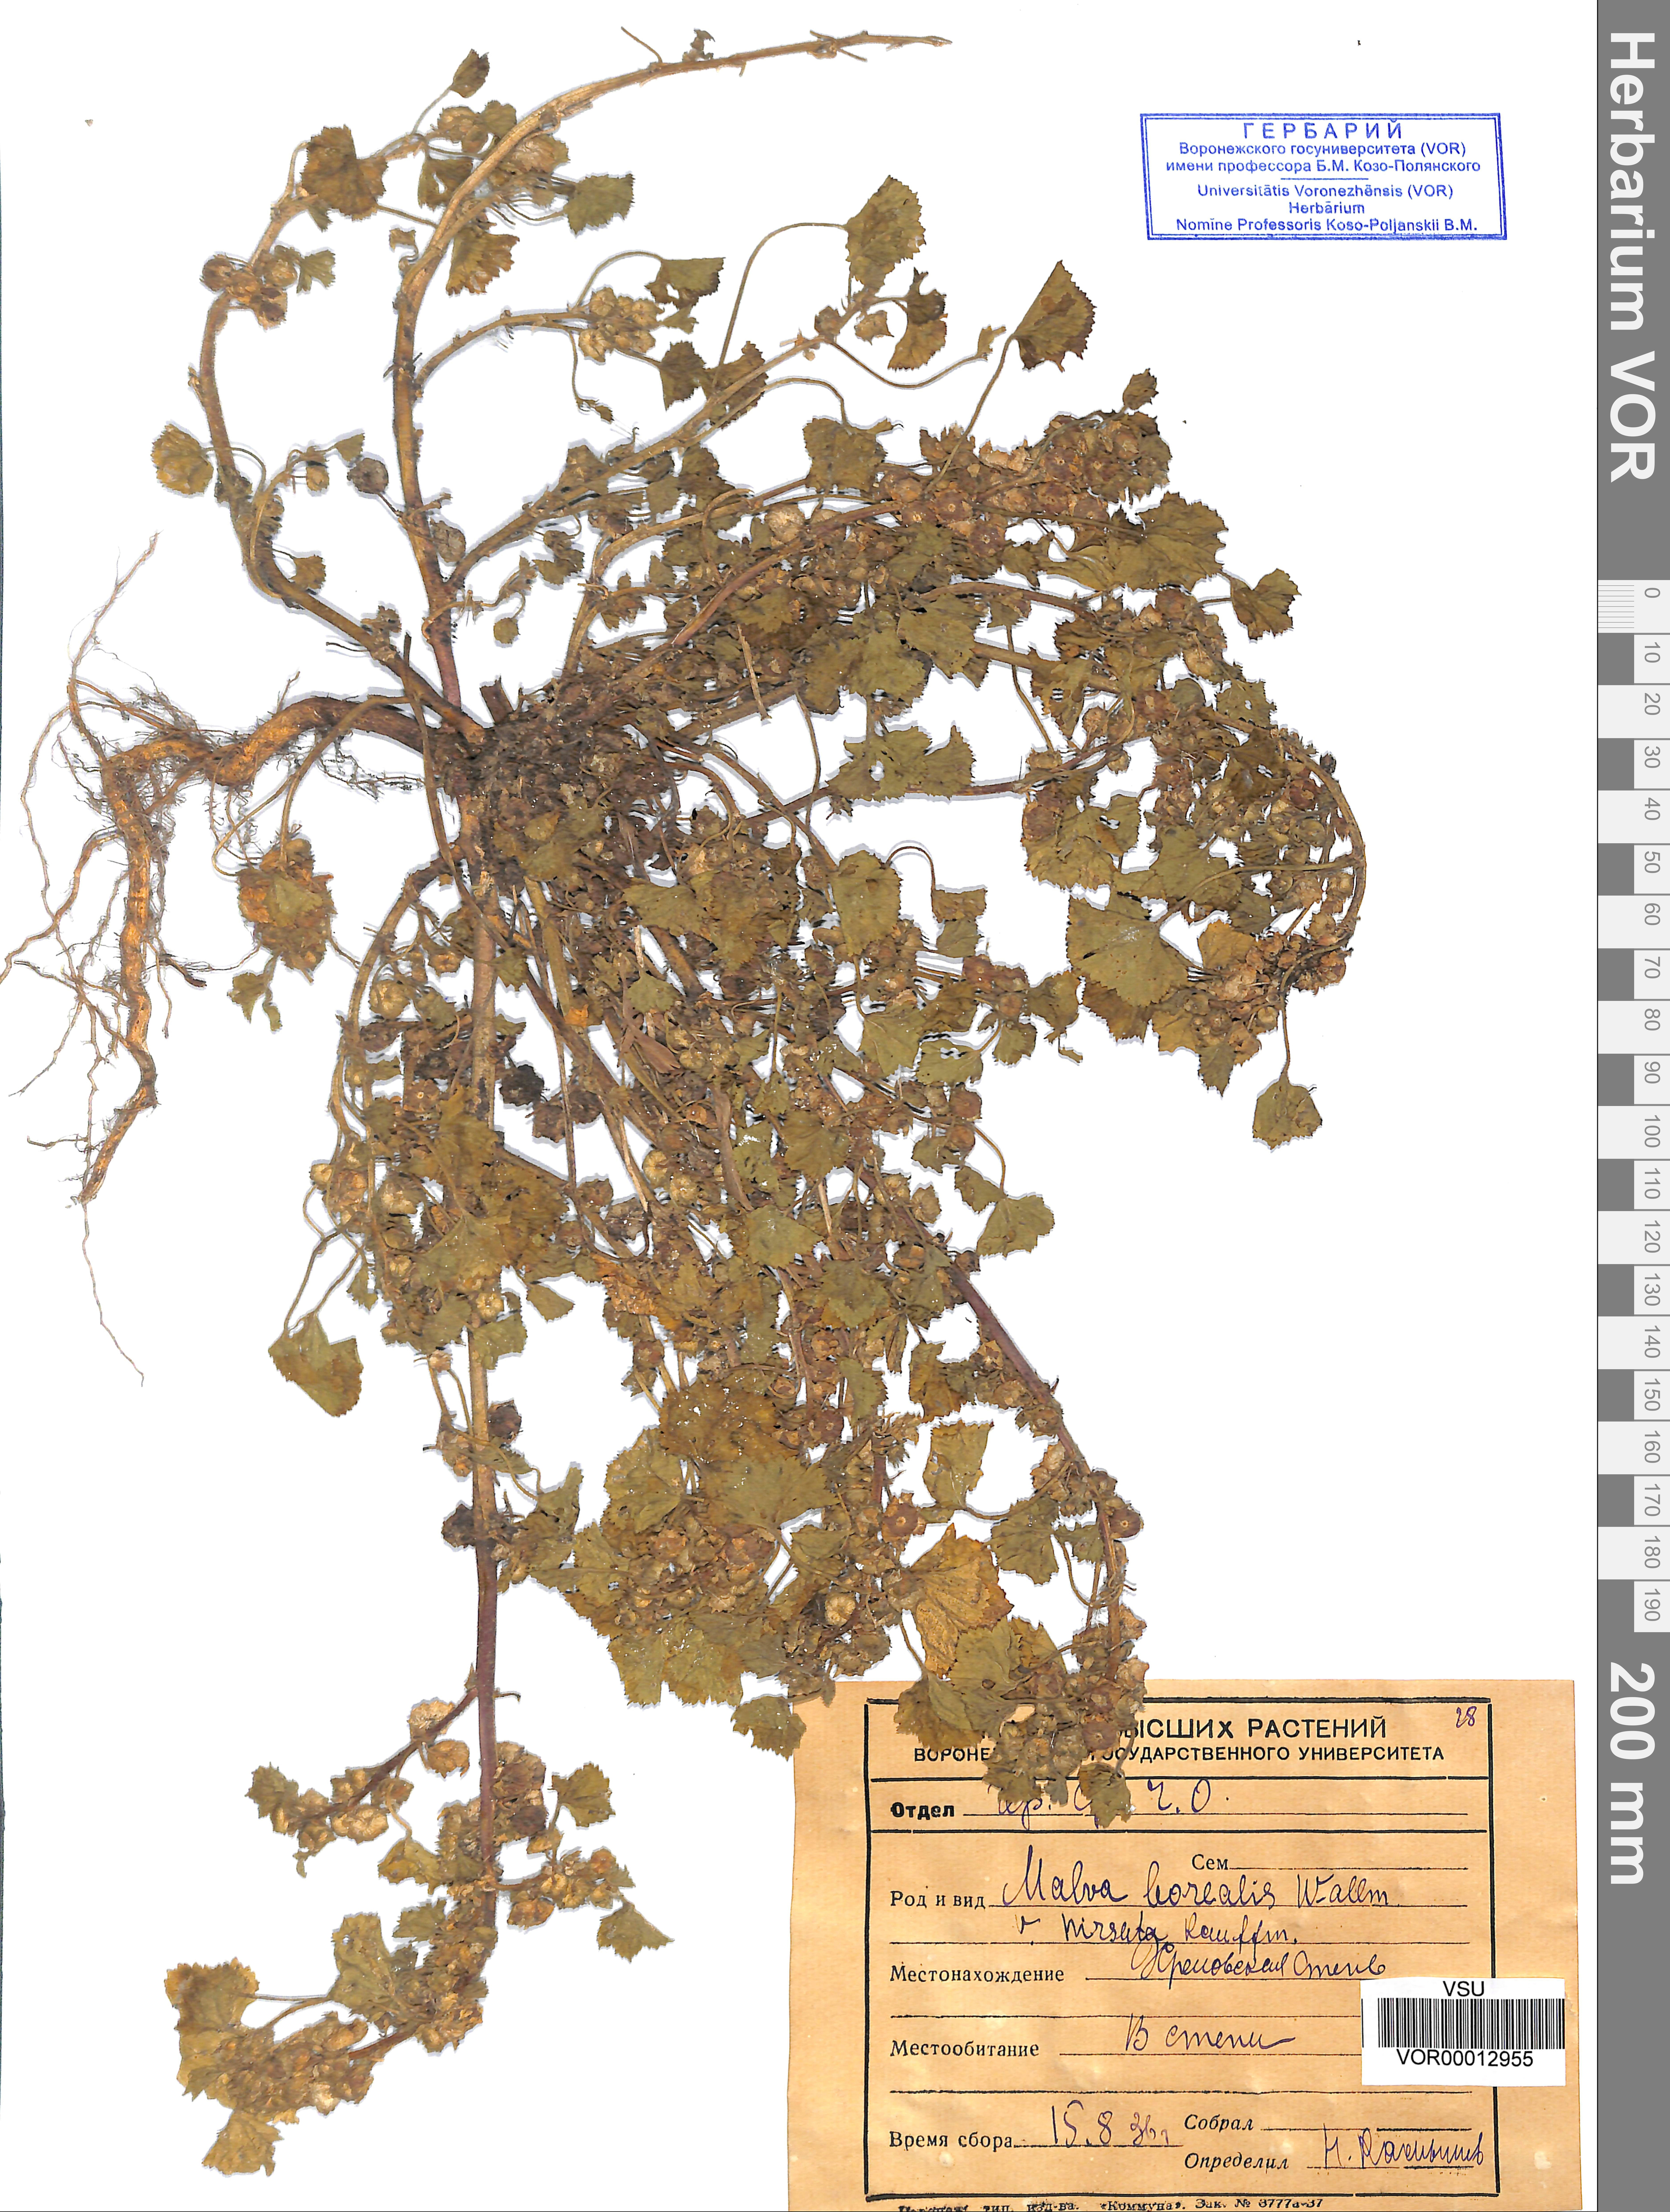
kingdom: Plantae
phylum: Tracheophyta
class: Magnoliopsida
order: Malvales
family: Malvaceae
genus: Malva
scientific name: Malva pusilla
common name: Small mallow
